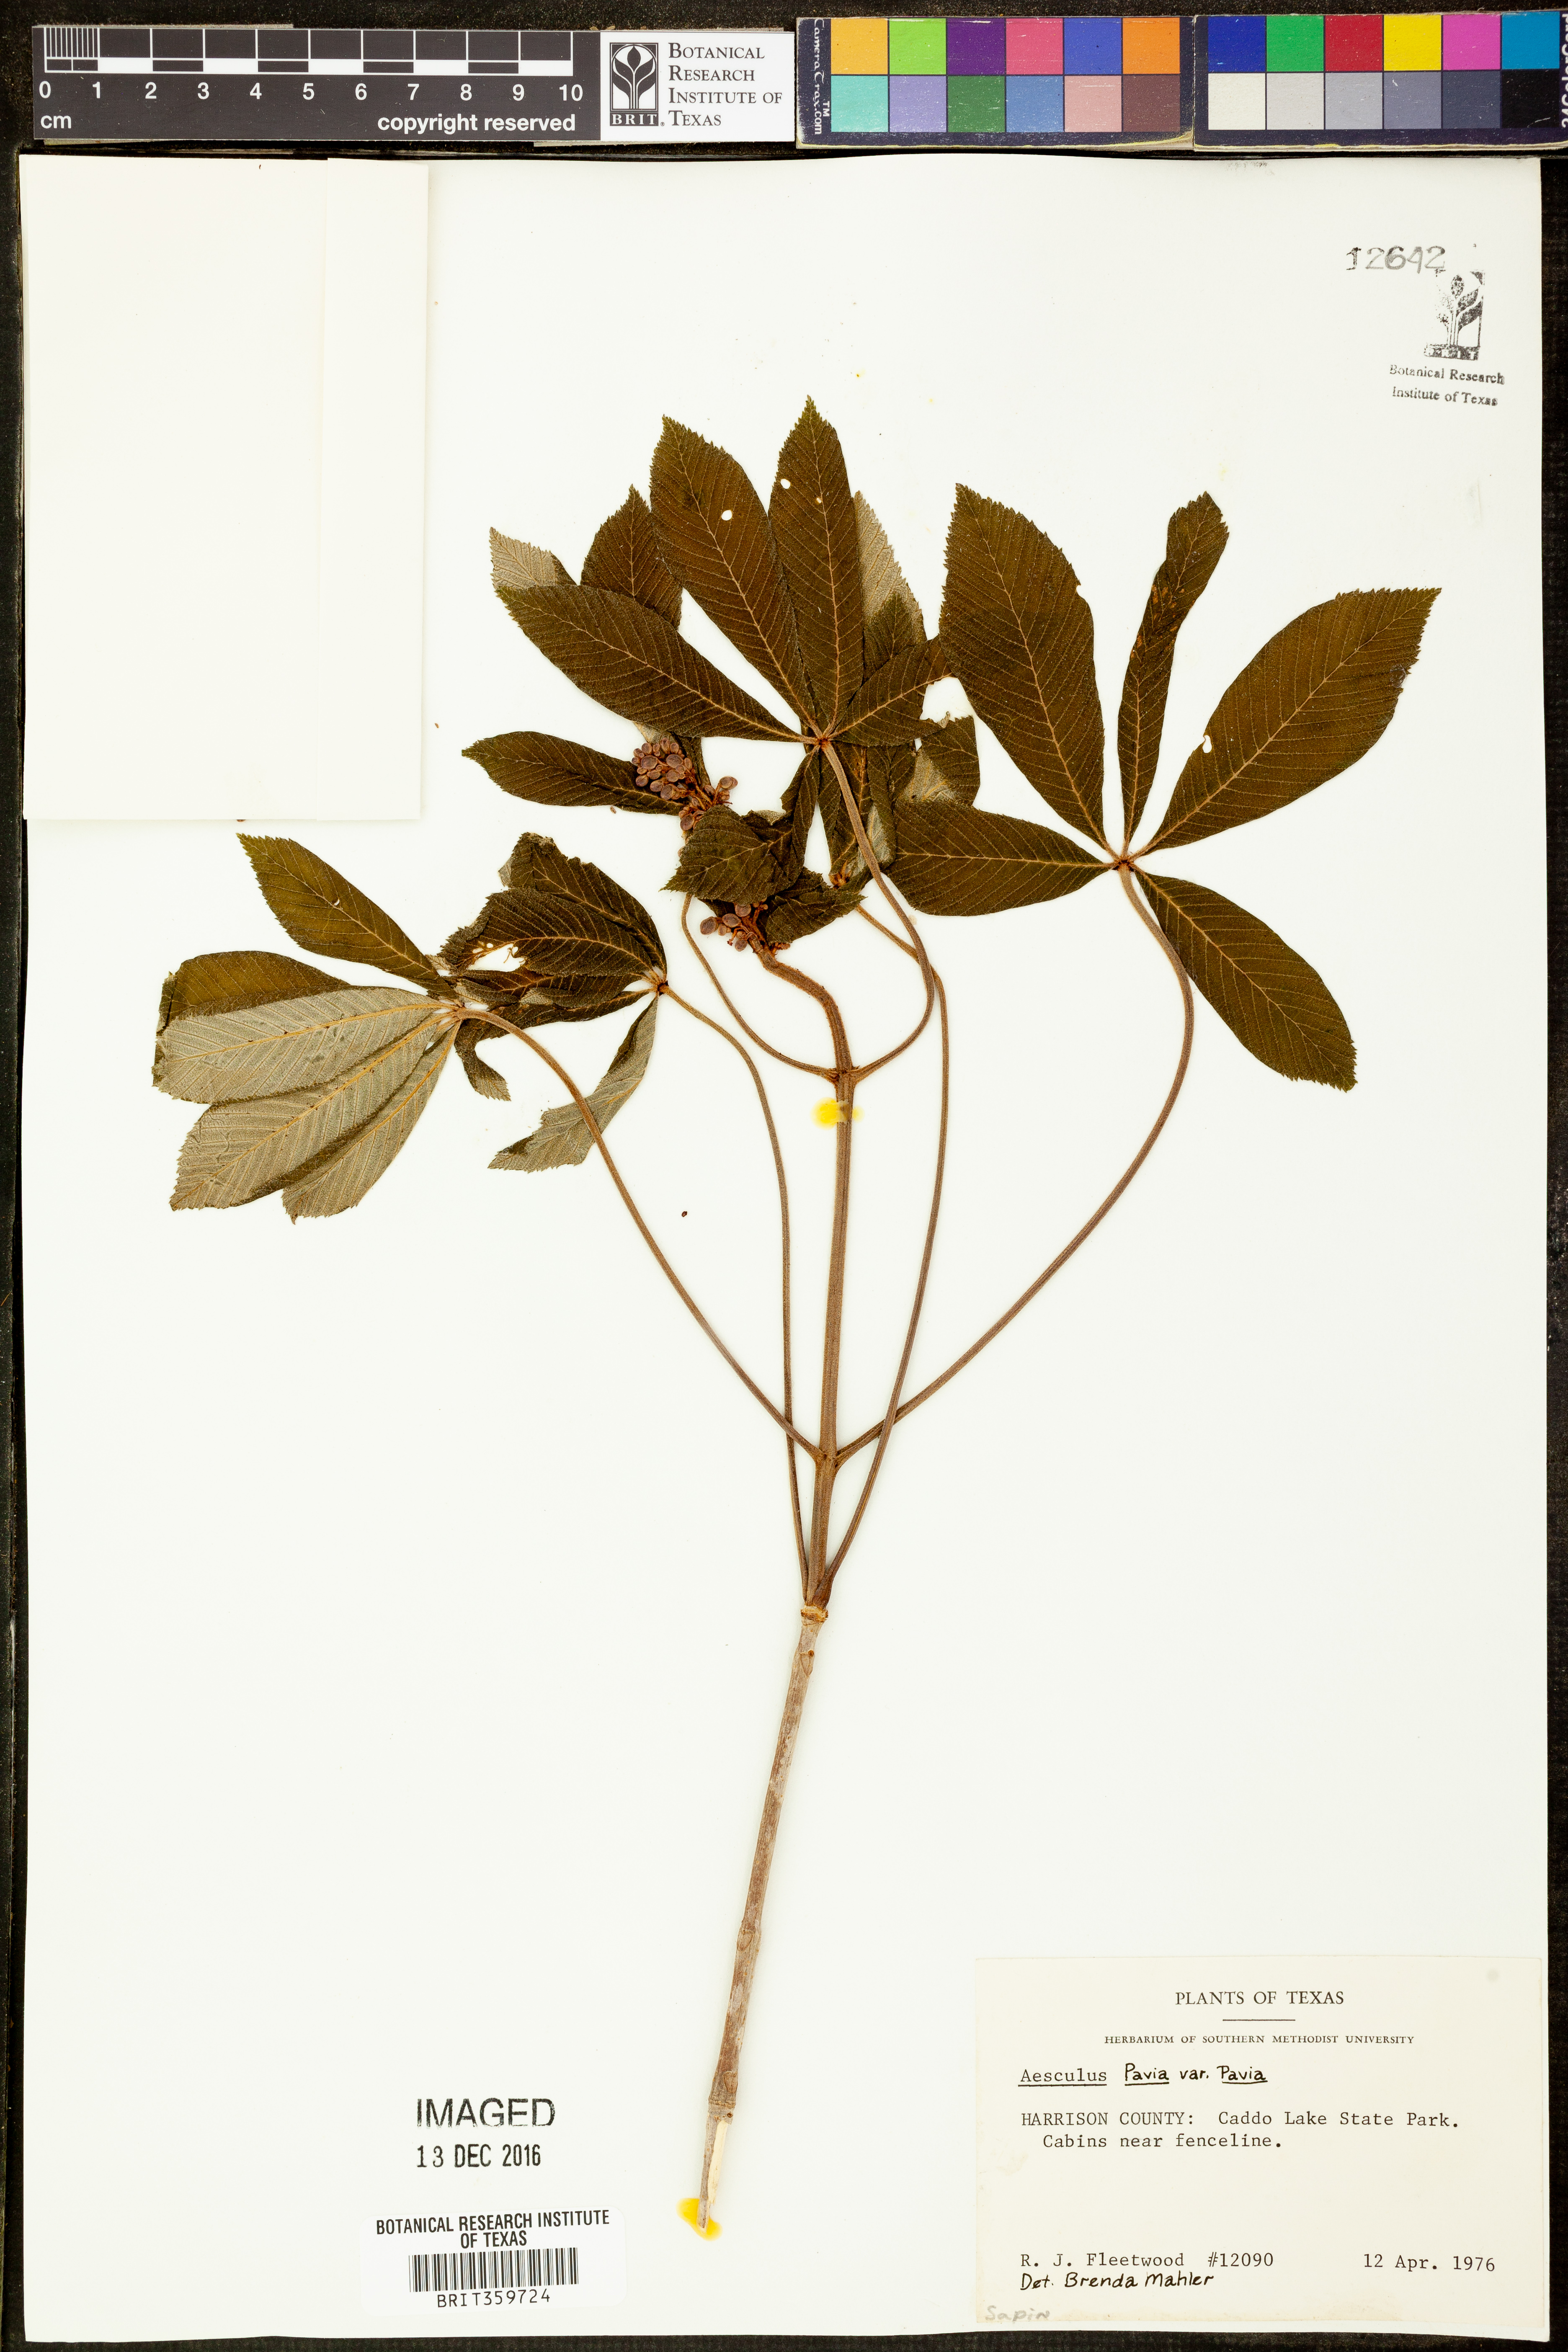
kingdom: Plantae
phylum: Tracheophyta
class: Magnoliopsida
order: Sapindales
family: Sapindaceae
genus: Aesculus
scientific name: Aesculus pavia
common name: Red buckeye
